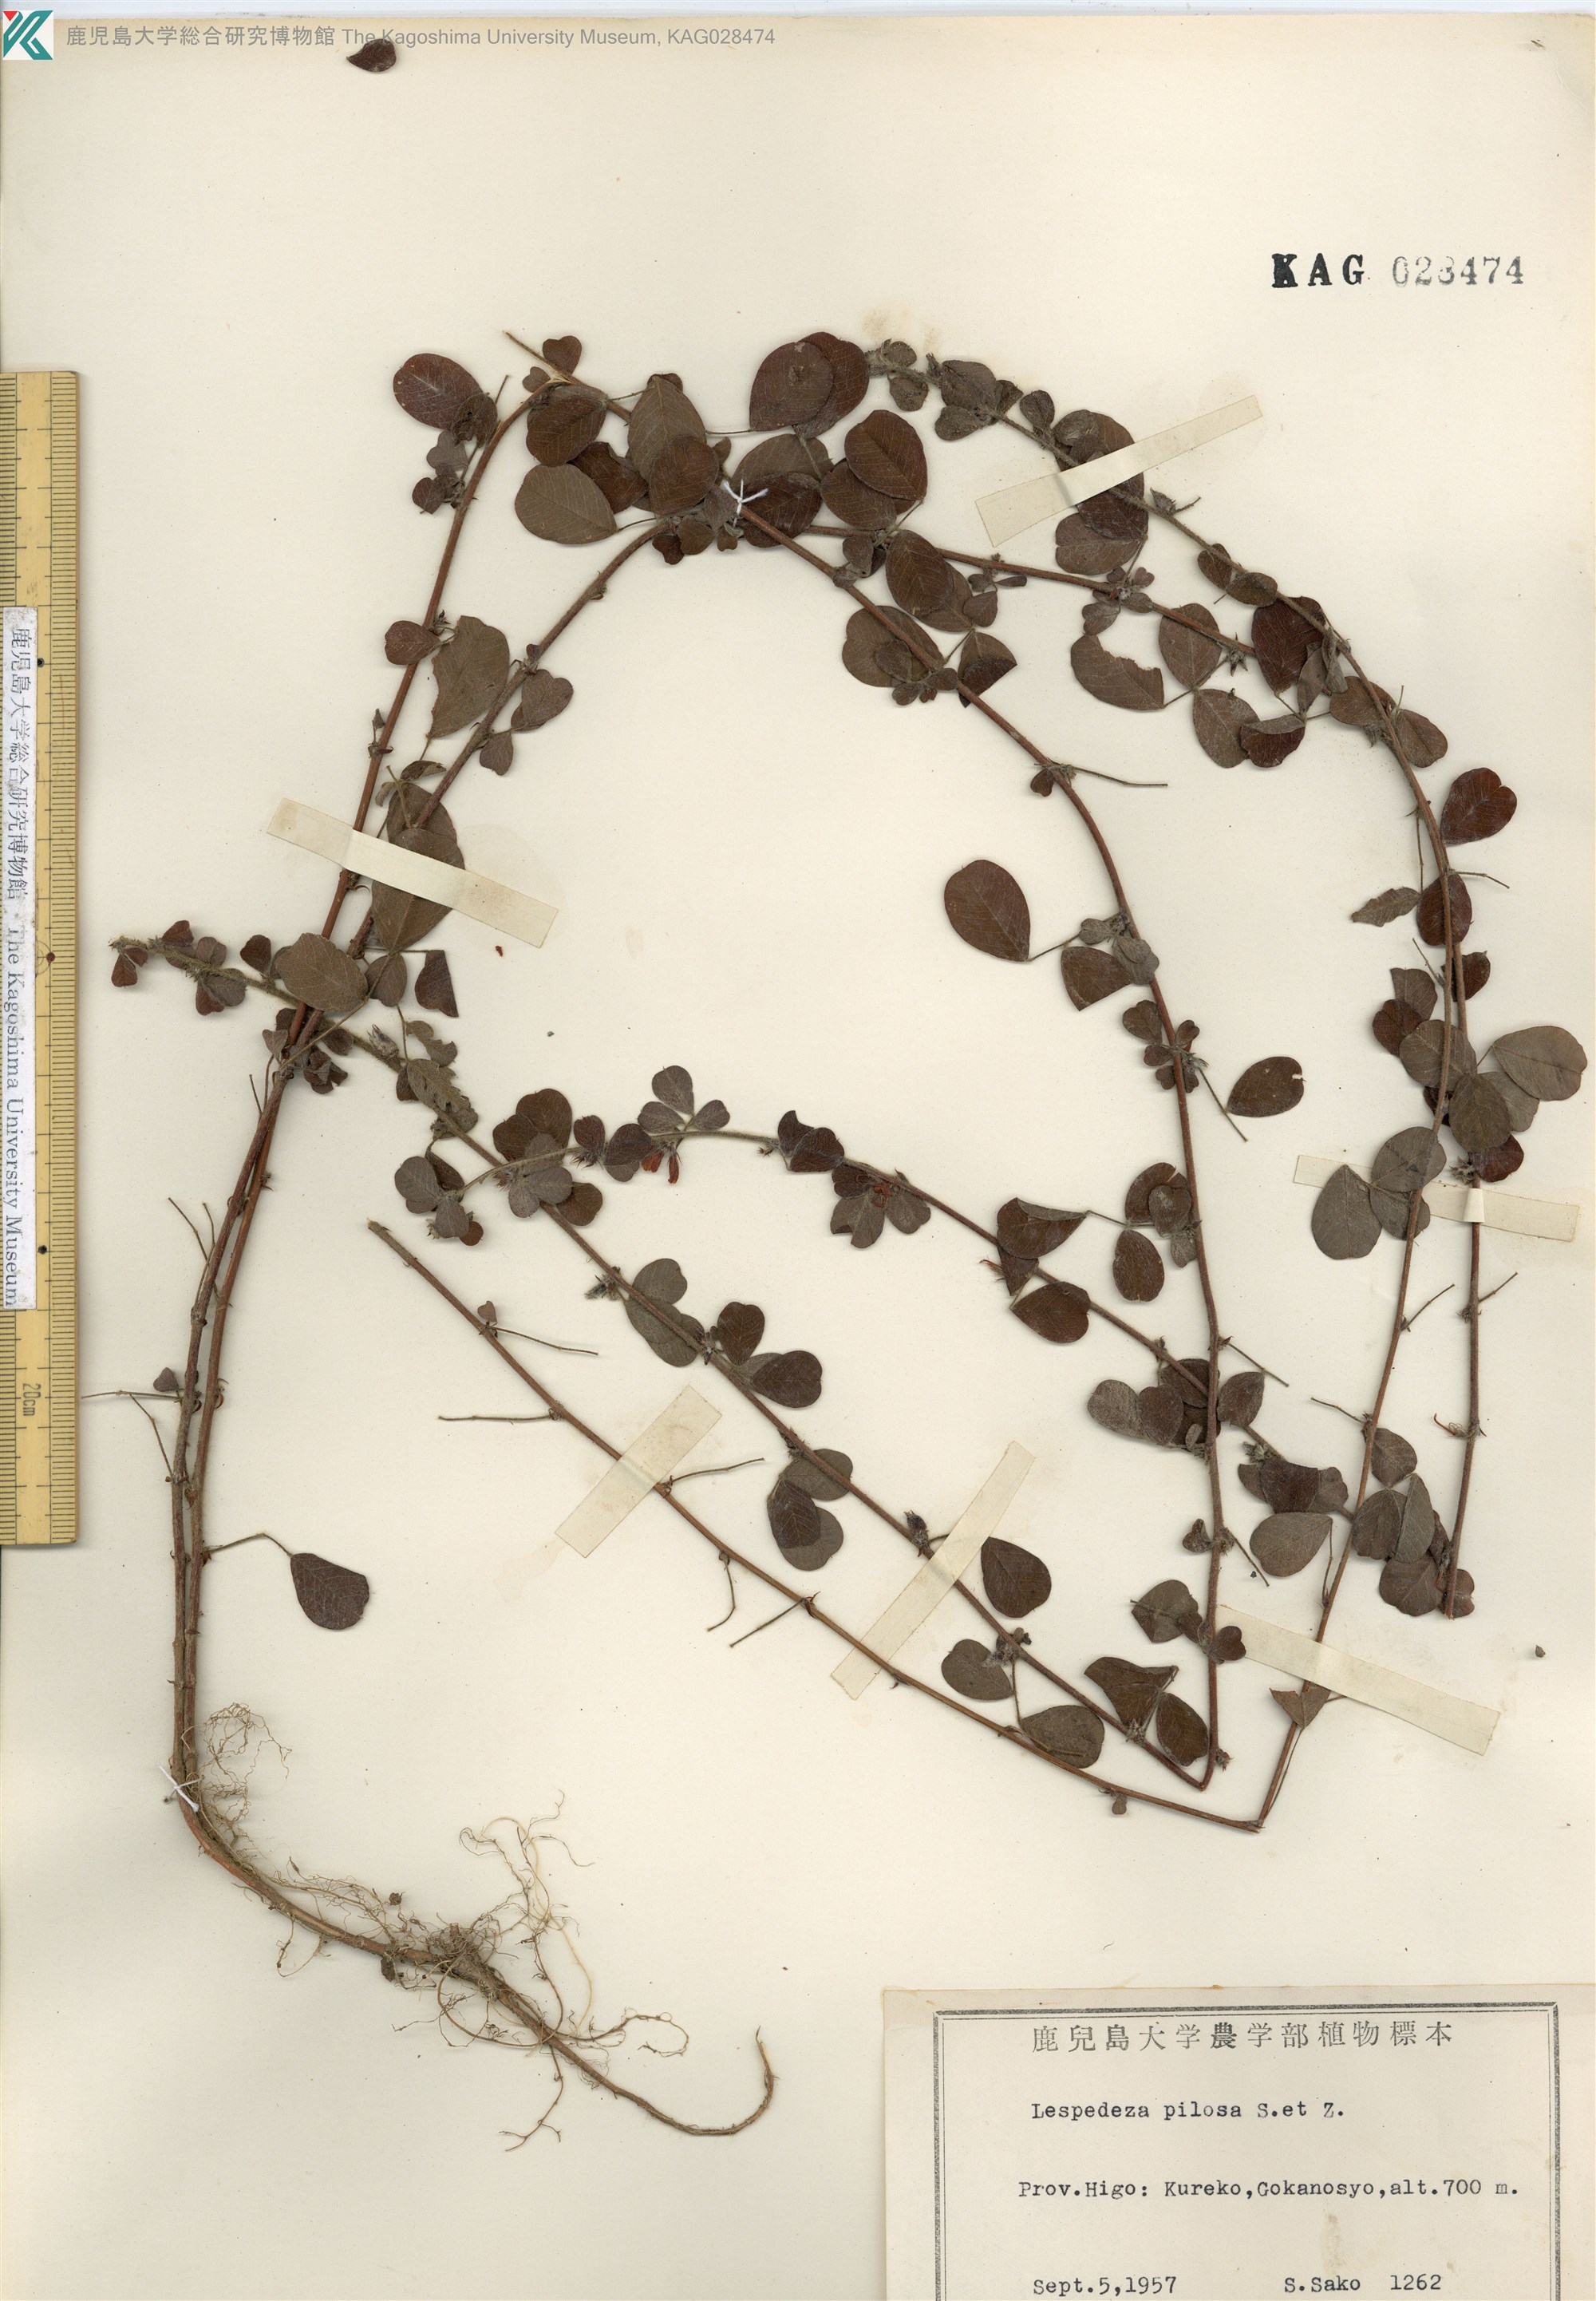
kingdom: Plantae
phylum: Tracheophyta
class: Magnoliopsida
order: Fabales
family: Fabaceae
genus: Lespedeza
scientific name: Lespedeza pilosa
